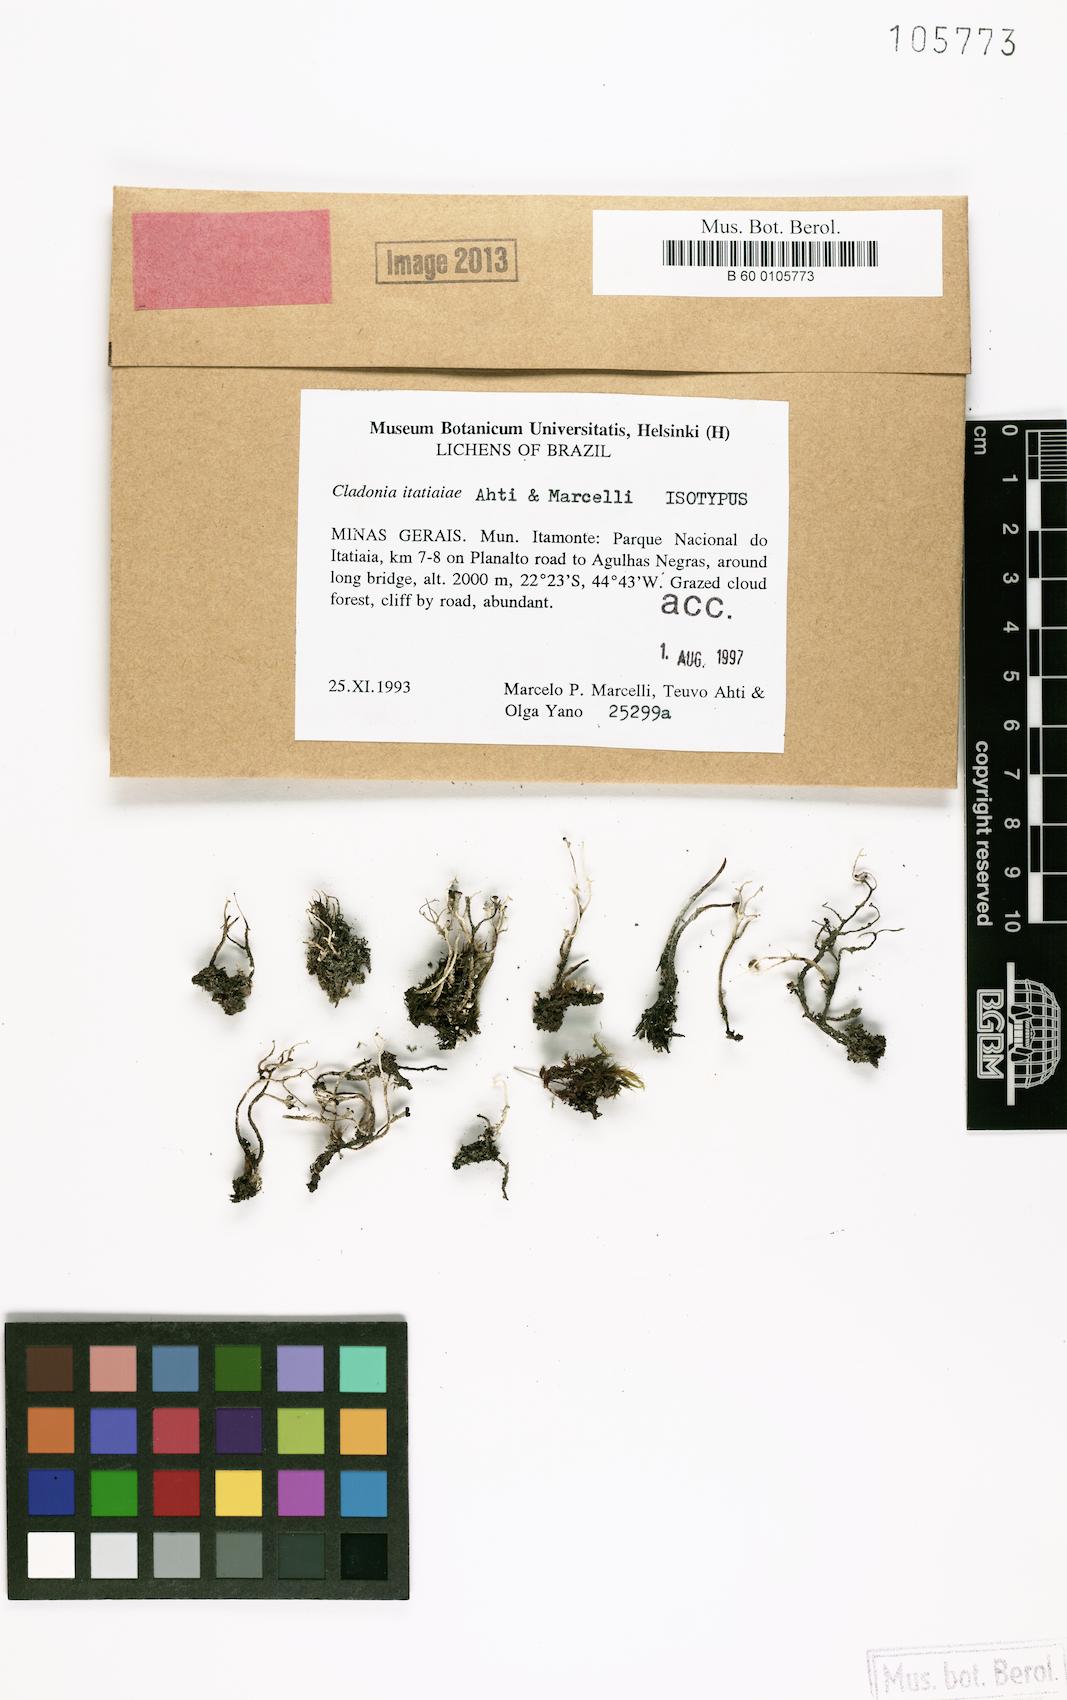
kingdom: Fungi
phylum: Ascomycota
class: Lecanoromycetes
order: Lecanorales
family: Cladoniaceae
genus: Cladonia
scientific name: Cladonia itatiaiae
